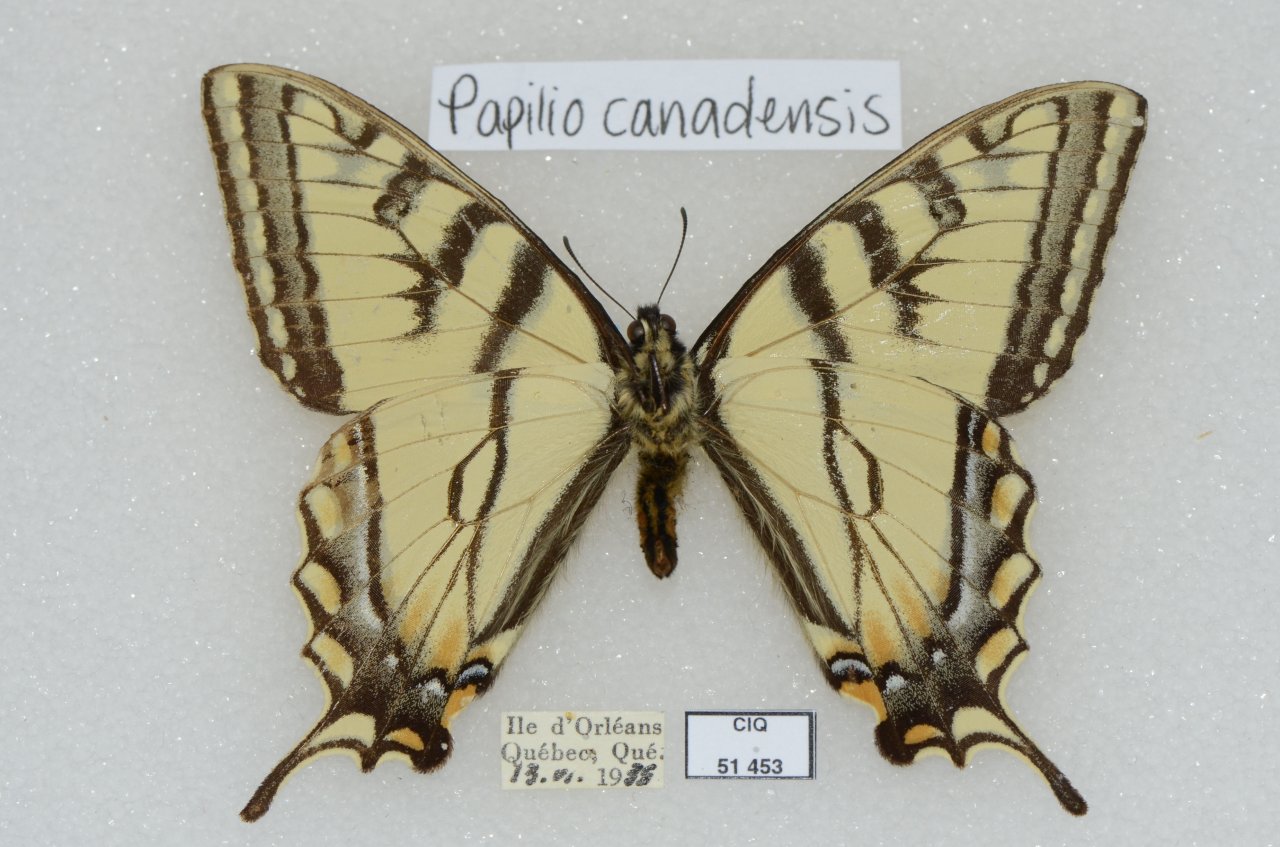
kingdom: Animalia
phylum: Arthropoda
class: Insecta
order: Lepidoptera
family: Papilionidae
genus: Pterourus
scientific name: Pterourus canadensis
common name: Canadian Tiger Swallowtail
